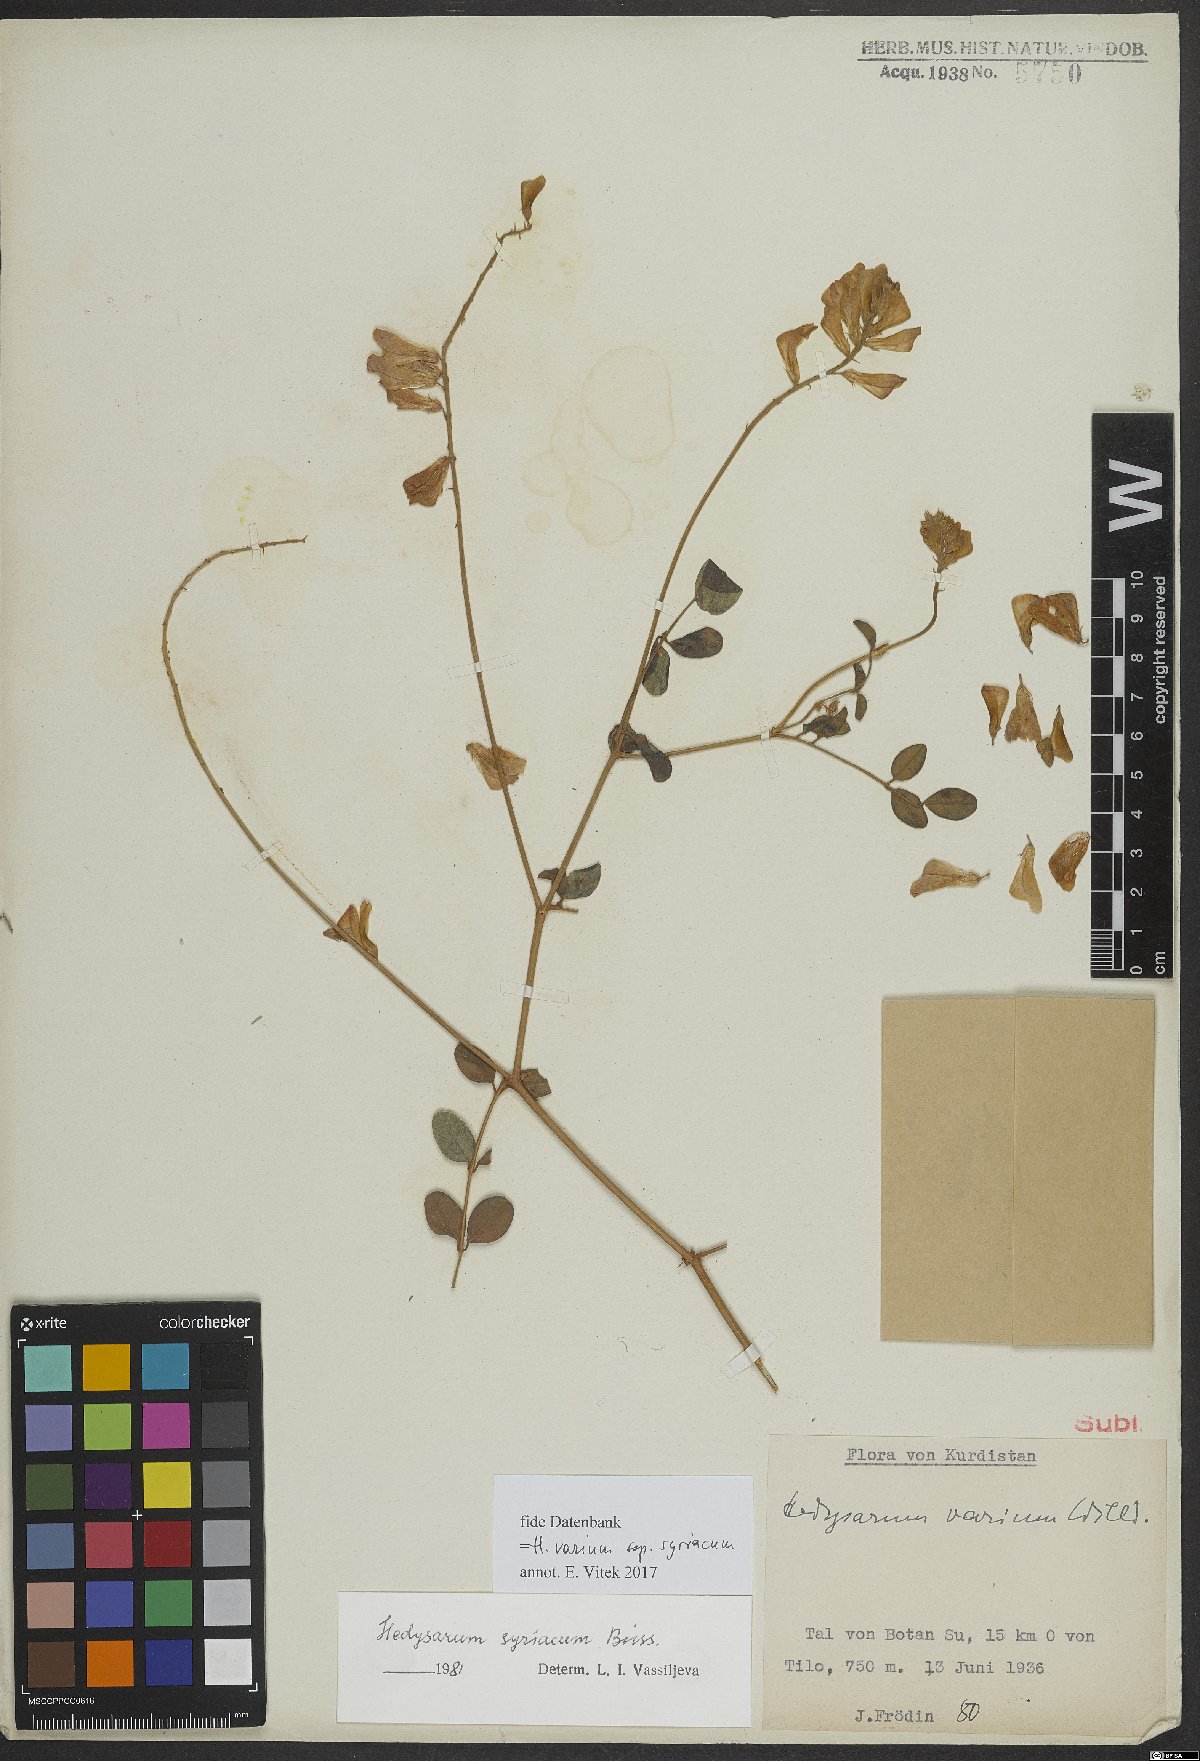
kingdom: Plantae
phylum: Tracheophyta
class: Magnoliopsida
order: Fabales
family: Fabaceae
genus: Hedysarum
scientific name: Hedysarum syriacum
